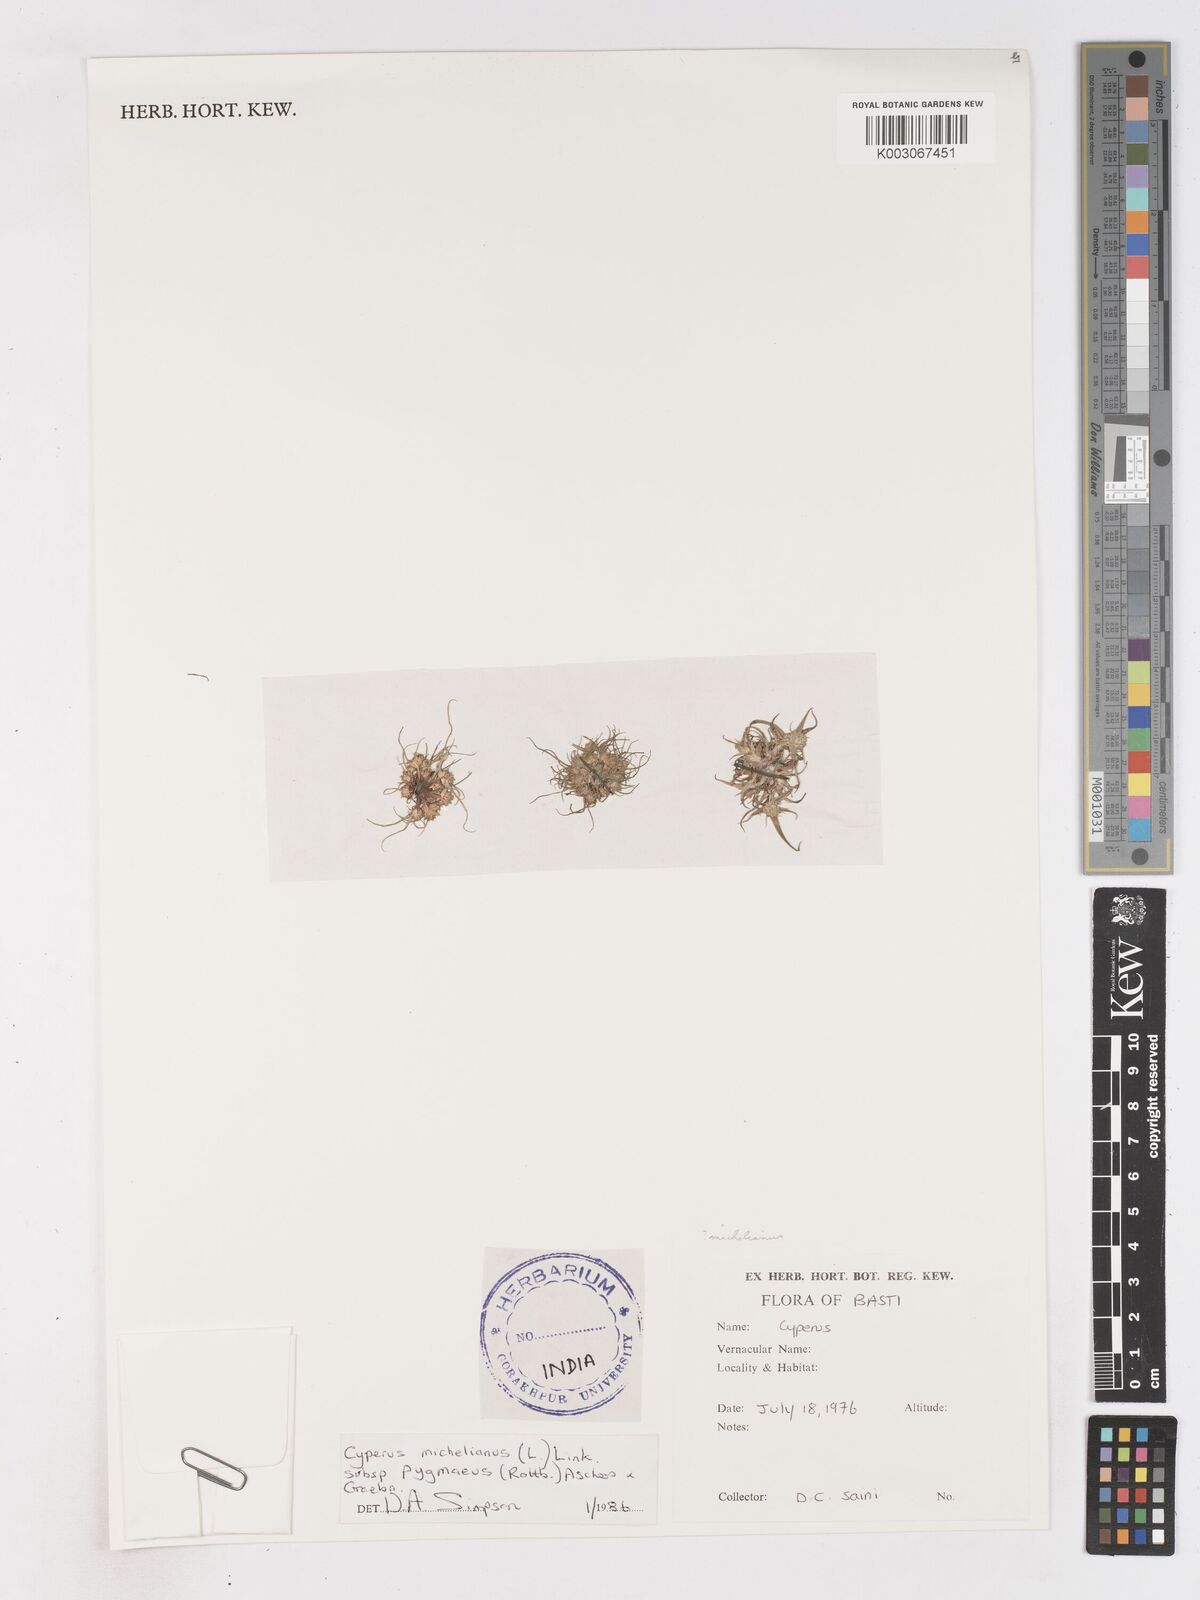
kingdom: Plantae
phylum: Tracheophyta
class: Liliopsida
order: Poales
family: Cyperaceae
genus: Cyperus
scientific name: Cyperus michelianus
